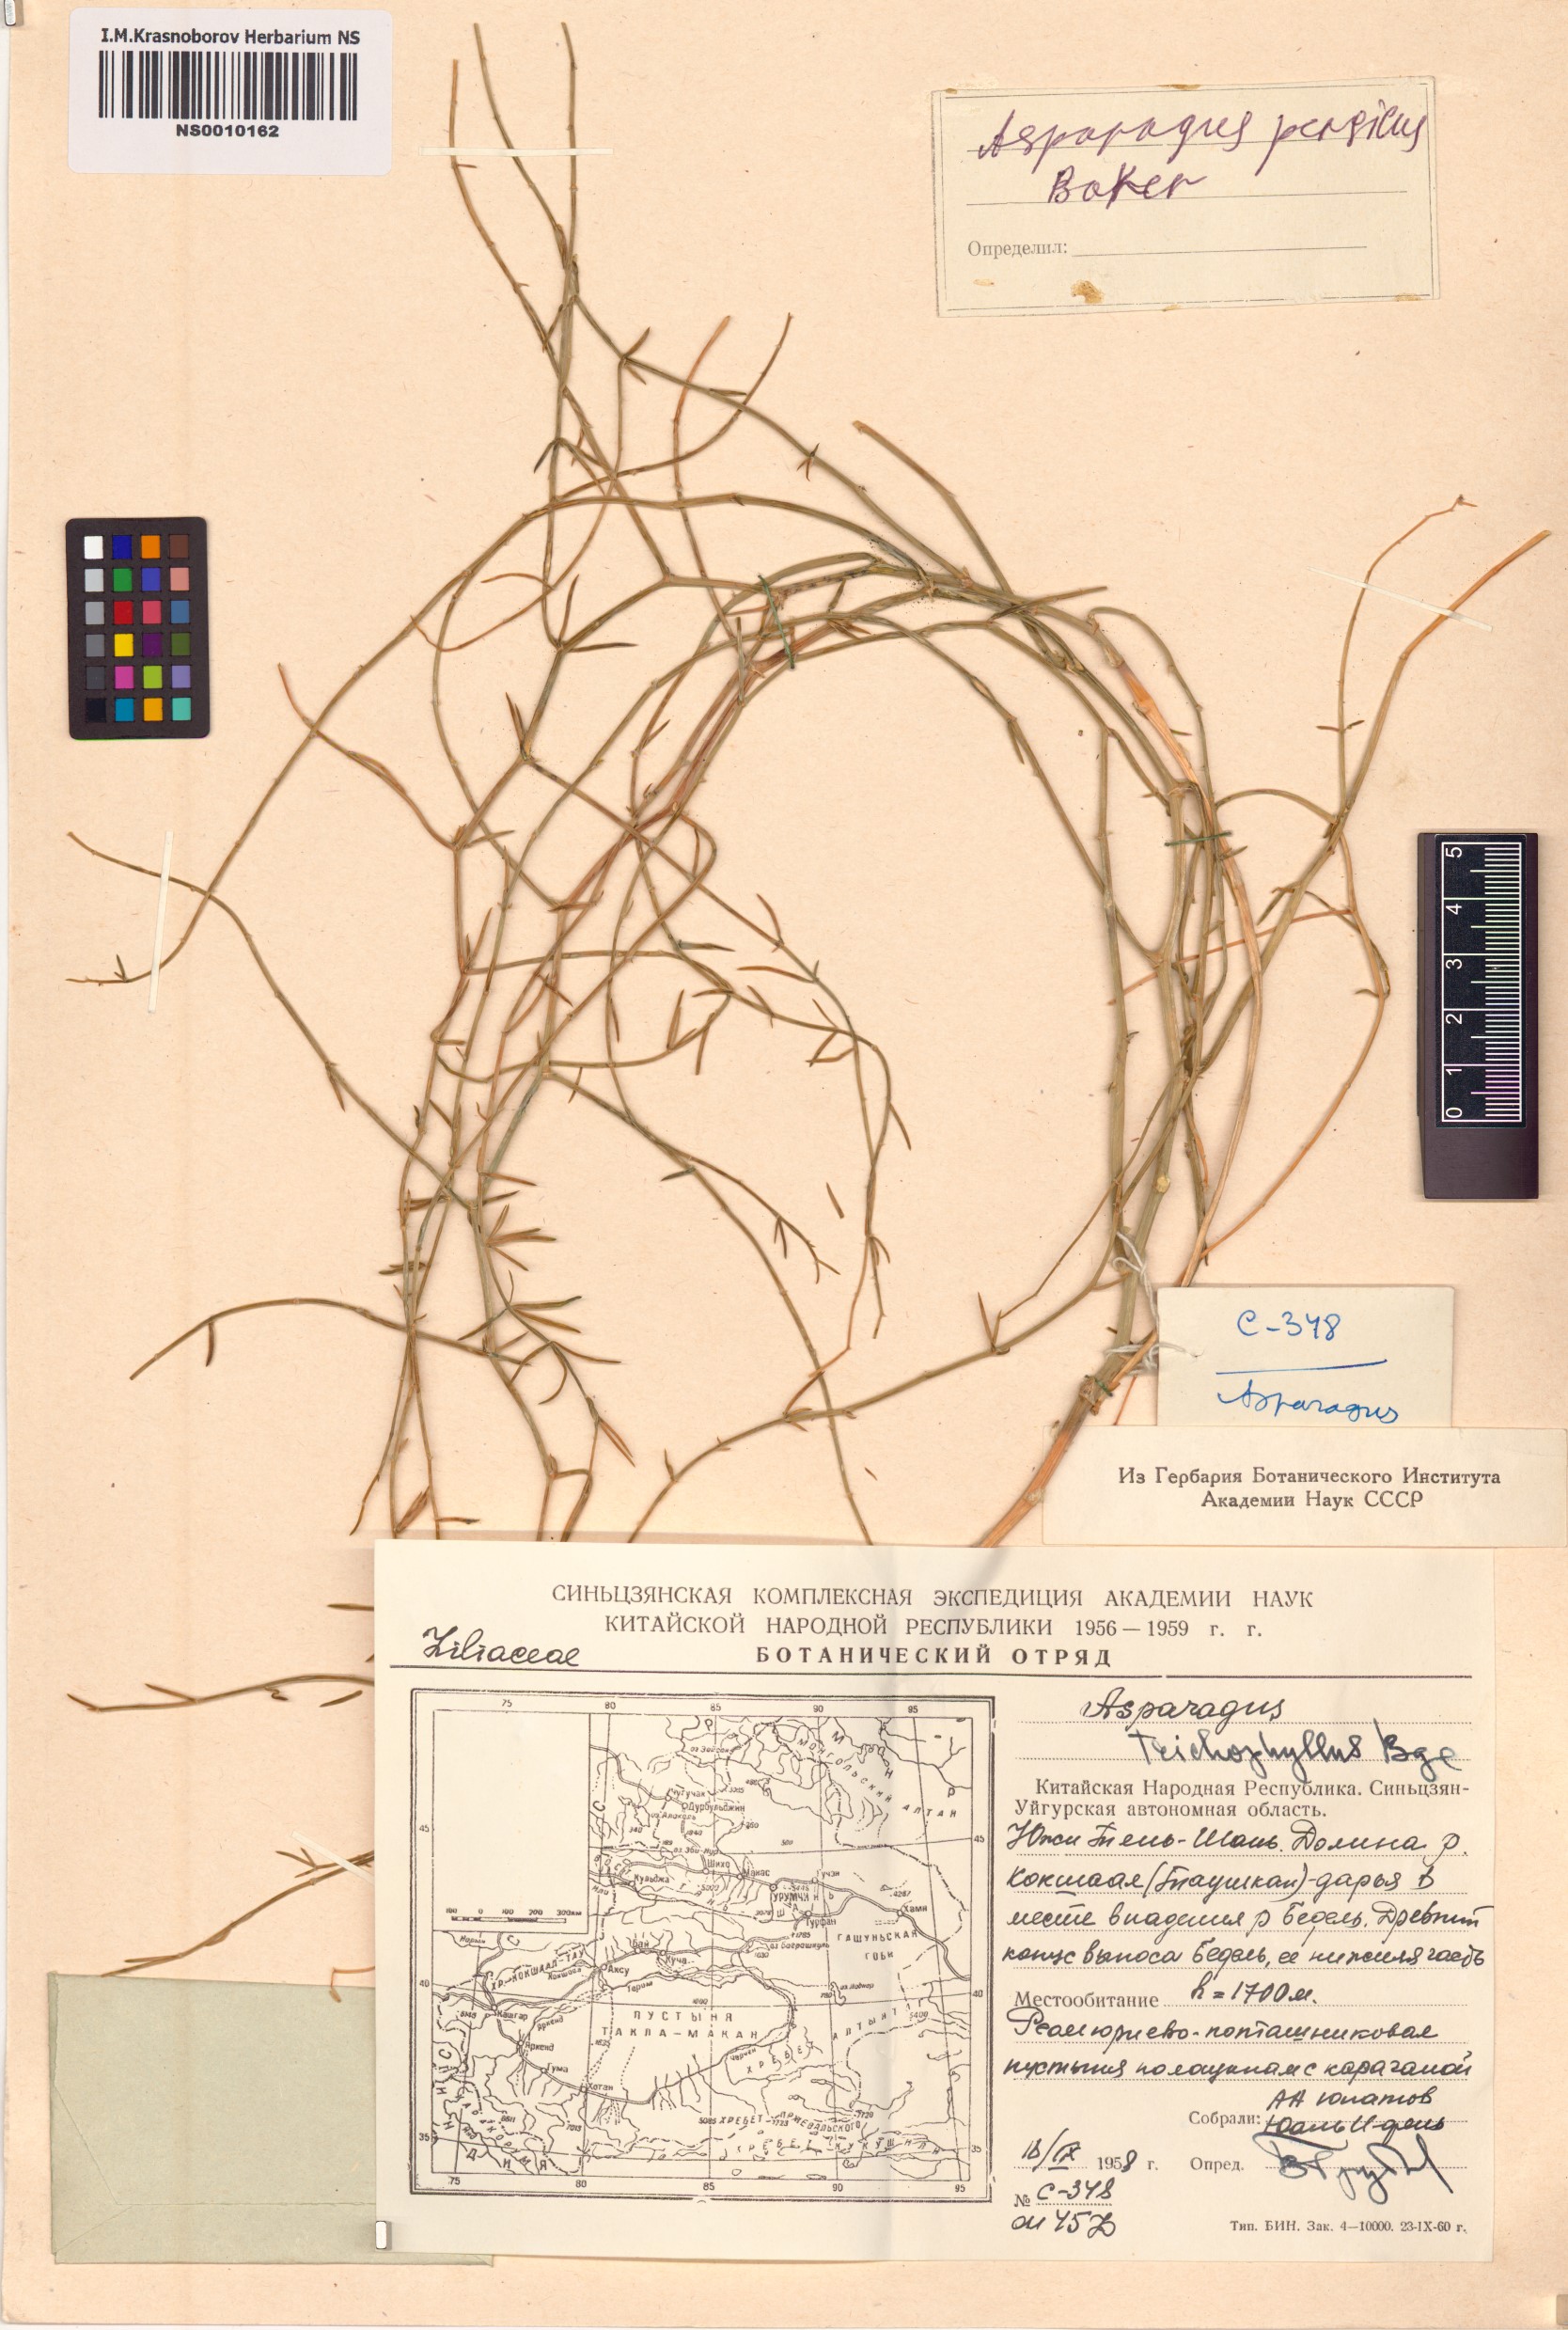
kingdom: Plantae
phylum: Tracheophyta
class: Liliopsida
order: Asparagales
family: Asparagaceae
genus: Asparagus
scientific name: Asparagus persicus
